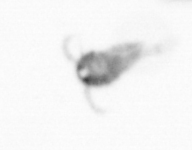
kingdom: Animalia
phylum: Arthropoda
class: Copepoda
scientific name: Copepoda
